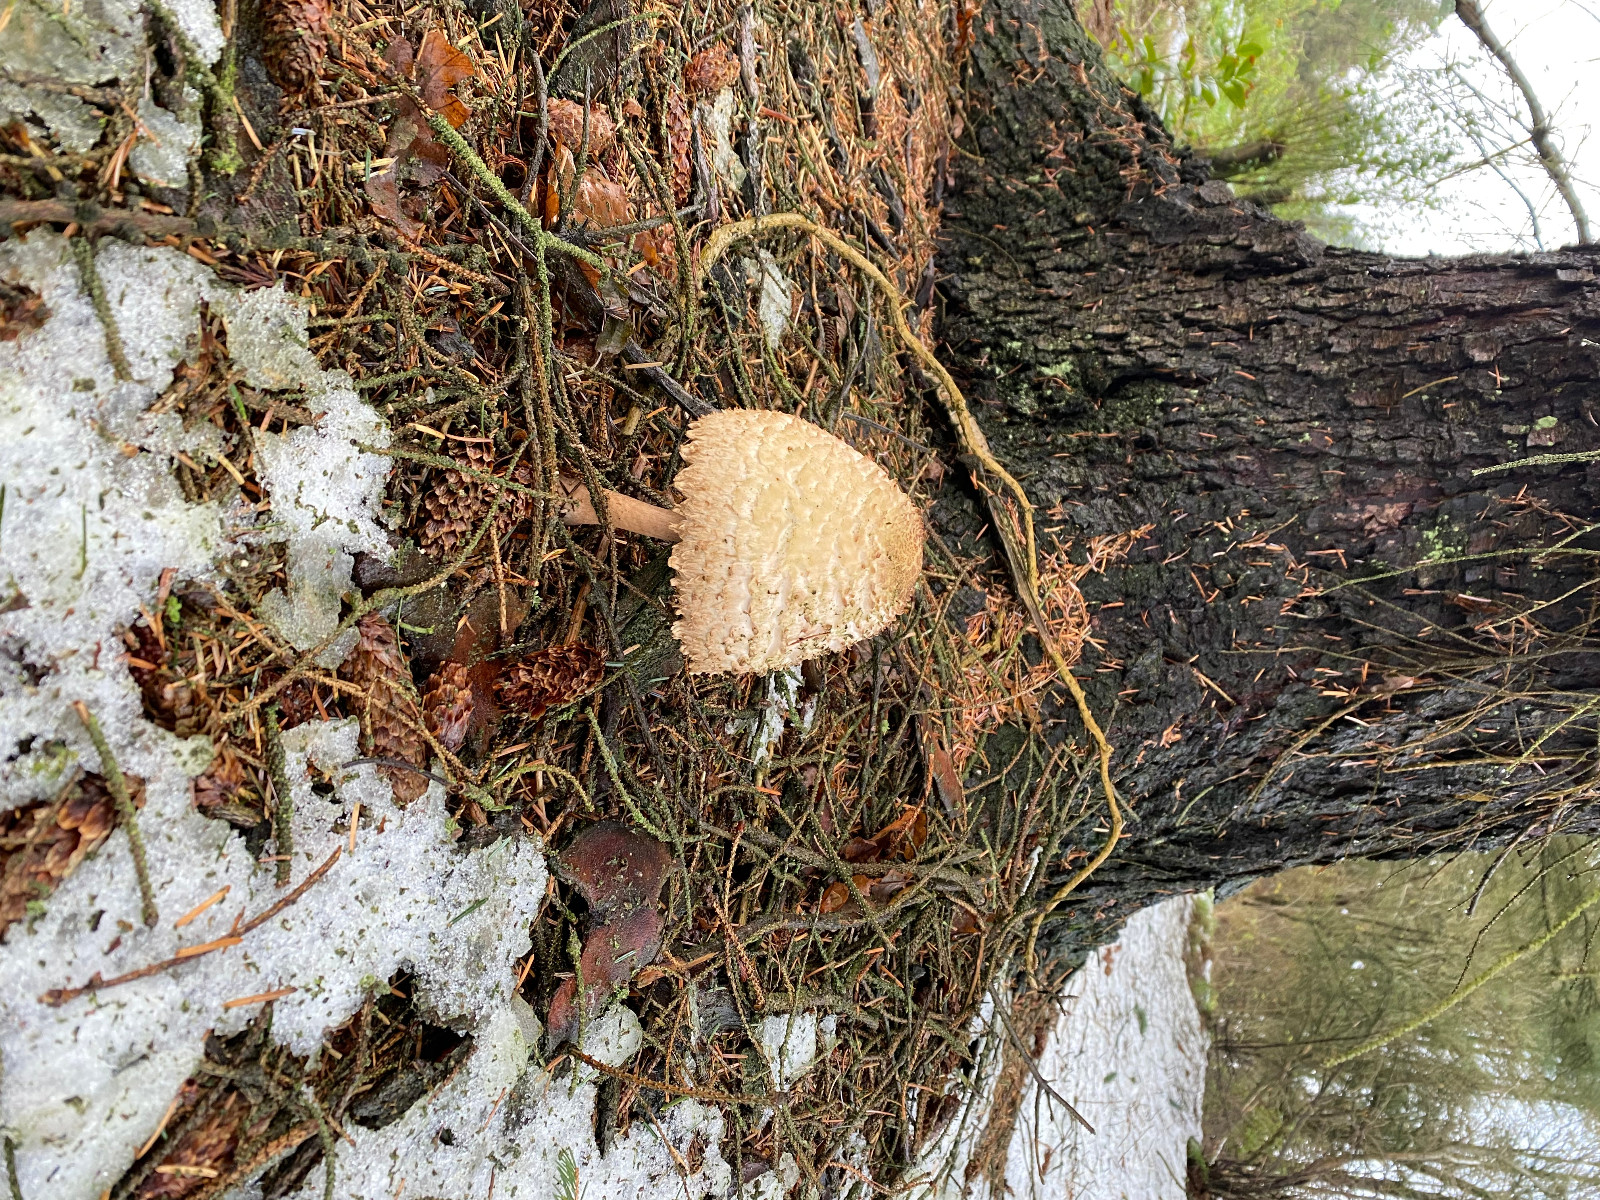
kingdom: Fungi
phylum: Basidiomycota
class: Agaricomycetes
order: Agaricales
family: Agaricaceae
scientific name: Agaricaceae
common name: champignonfamilien
